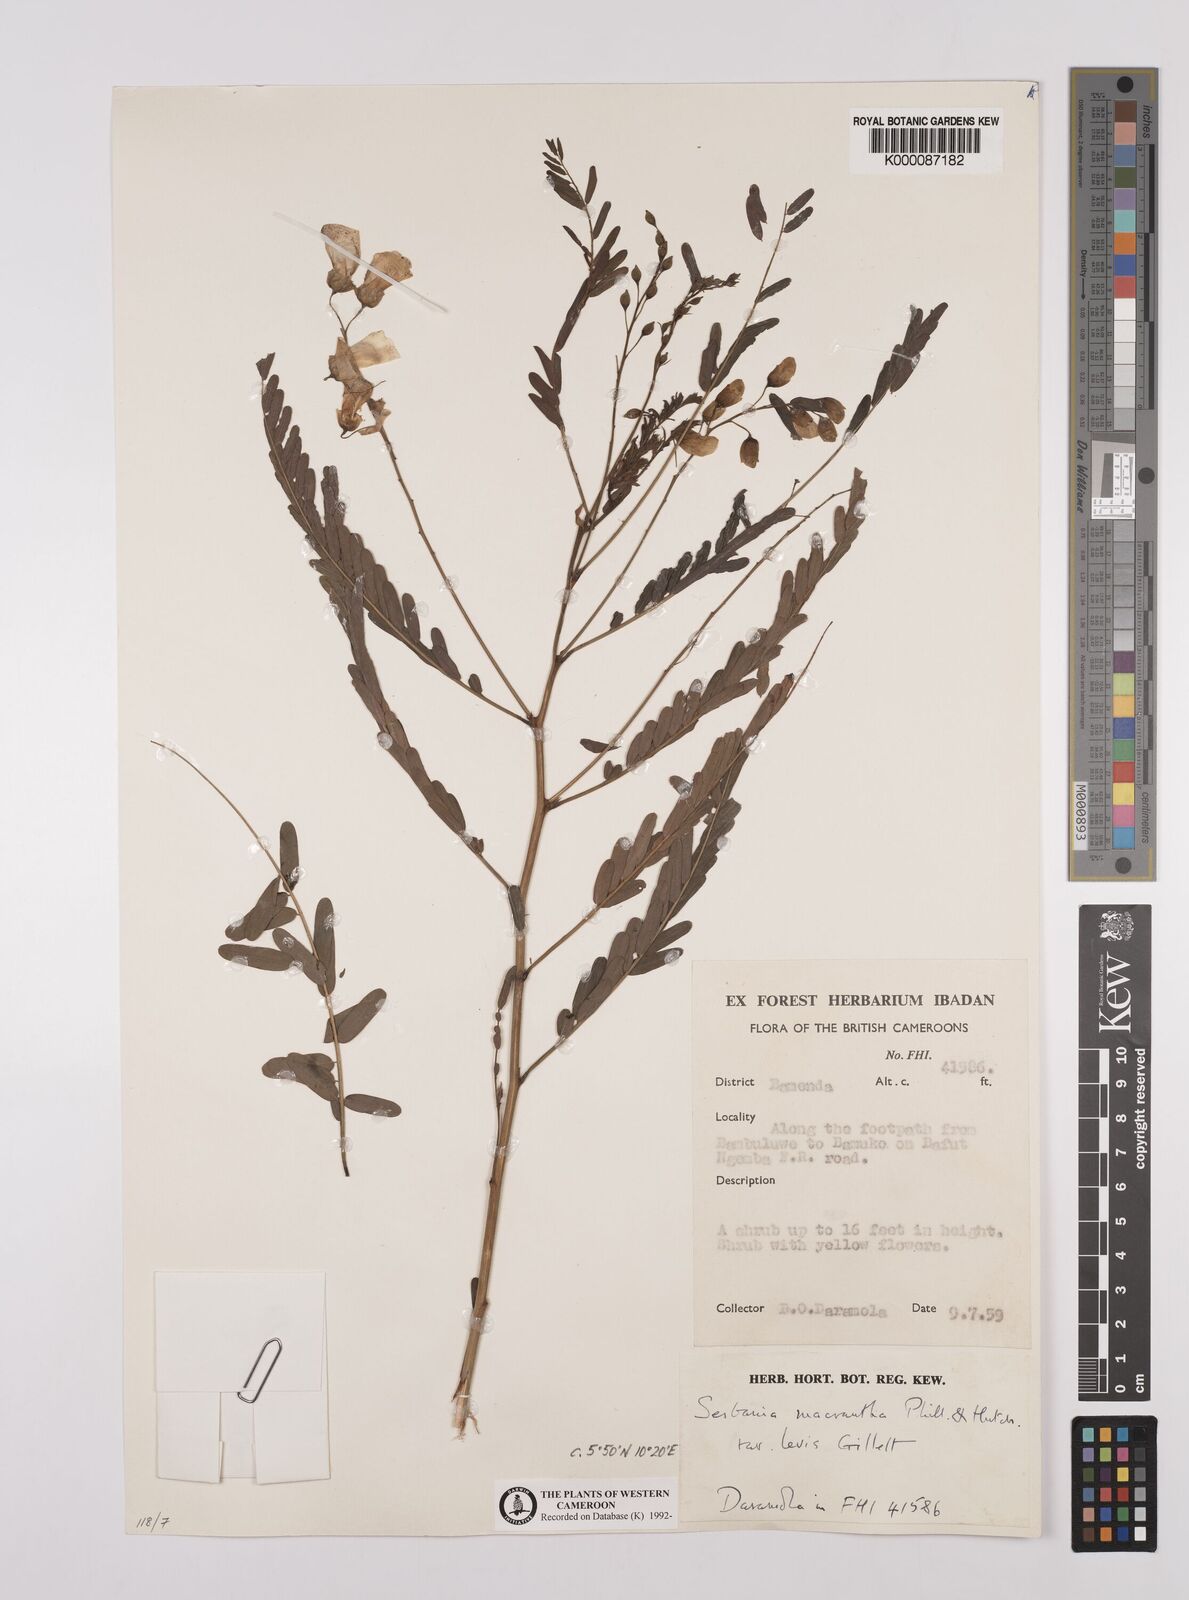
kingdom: Plantae
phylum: Tracheophyta
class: Magnoliopsida
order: Fabales
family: Fabaceae
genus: Sesbania
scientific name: Sesbania macrantha
